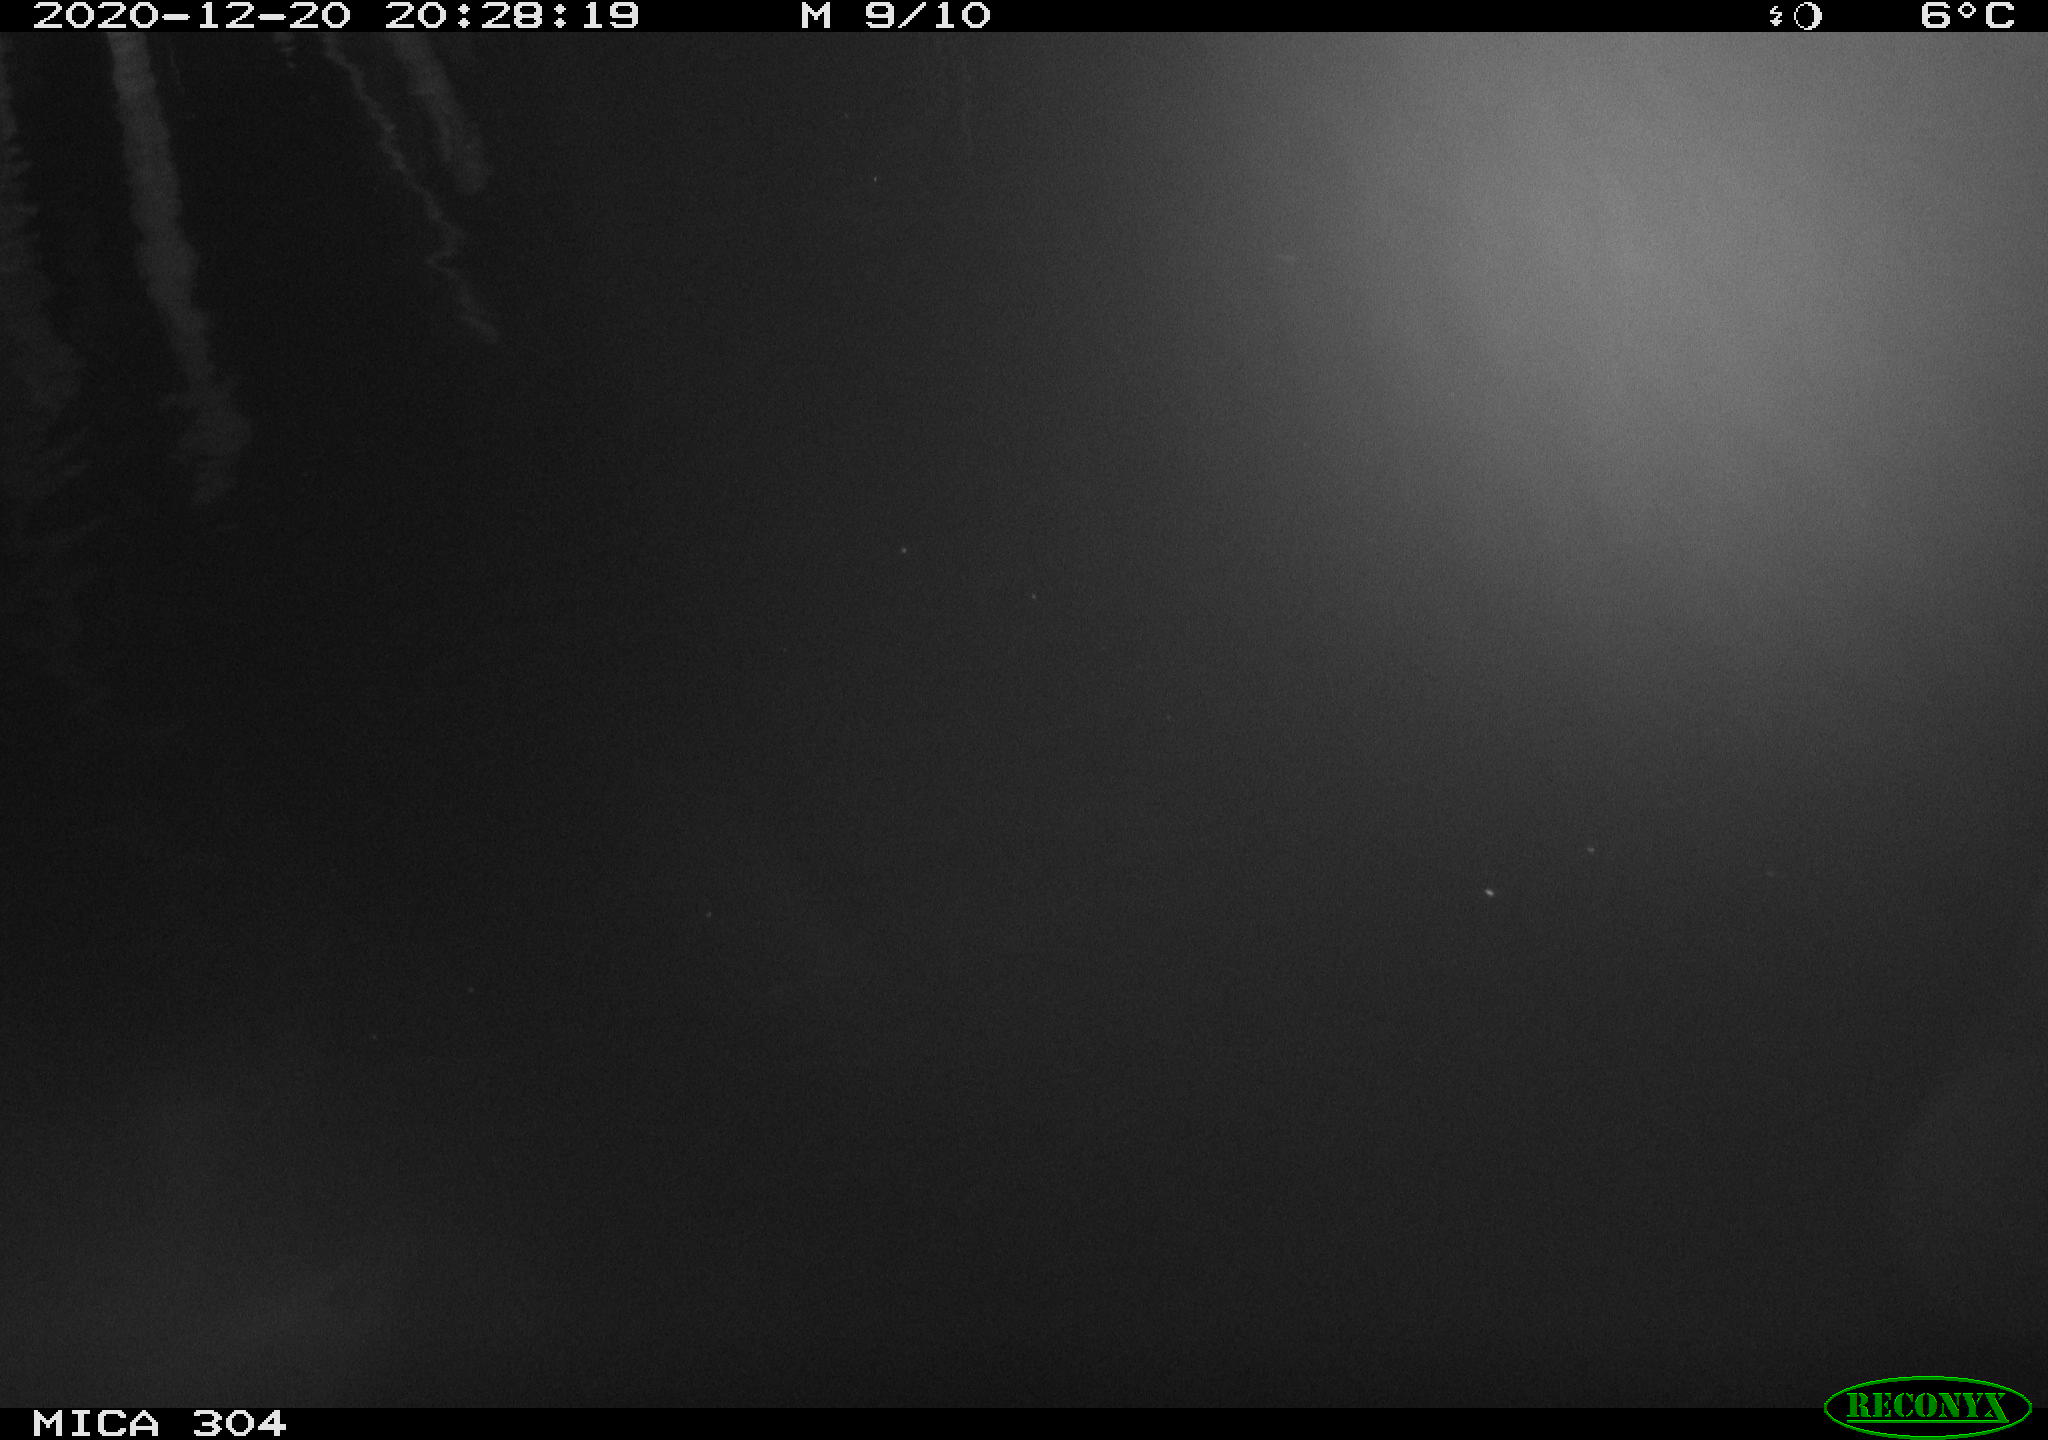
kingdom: Animalia
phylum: Chordata
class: Mammalia
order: Rodentia
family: Muridae
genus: Rattus
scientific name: Rattus norvegicus
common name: Brown rat
